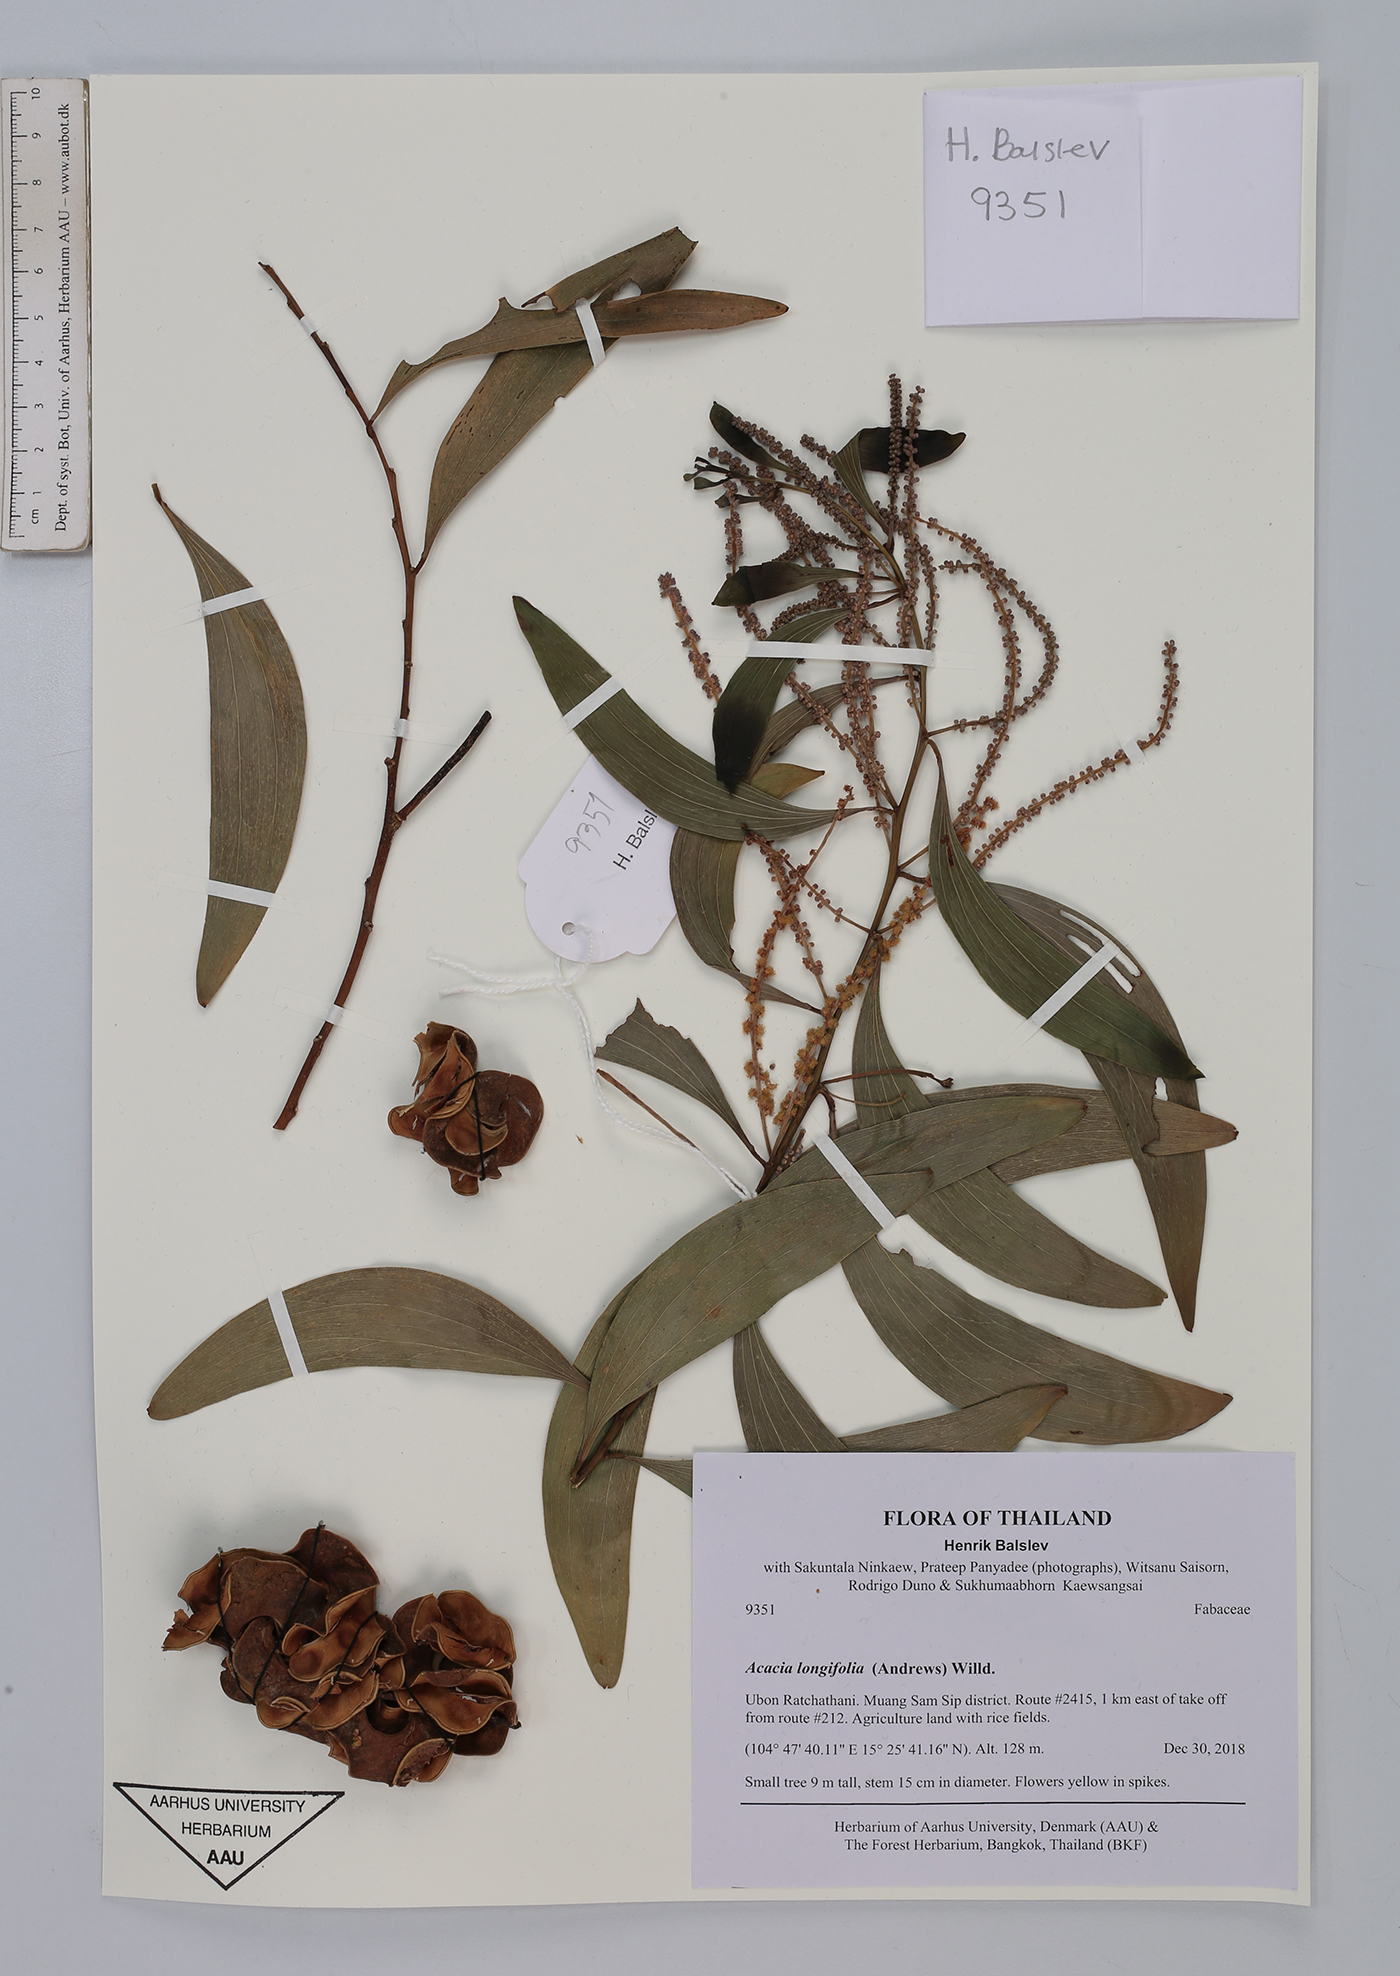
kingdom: Plantae
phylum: Tracheophyta
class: Magnoliopsida
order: Fabales
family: Fabaceae
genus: Acacia
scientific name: Acacia auriculiformis
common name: Earleaf acacia
